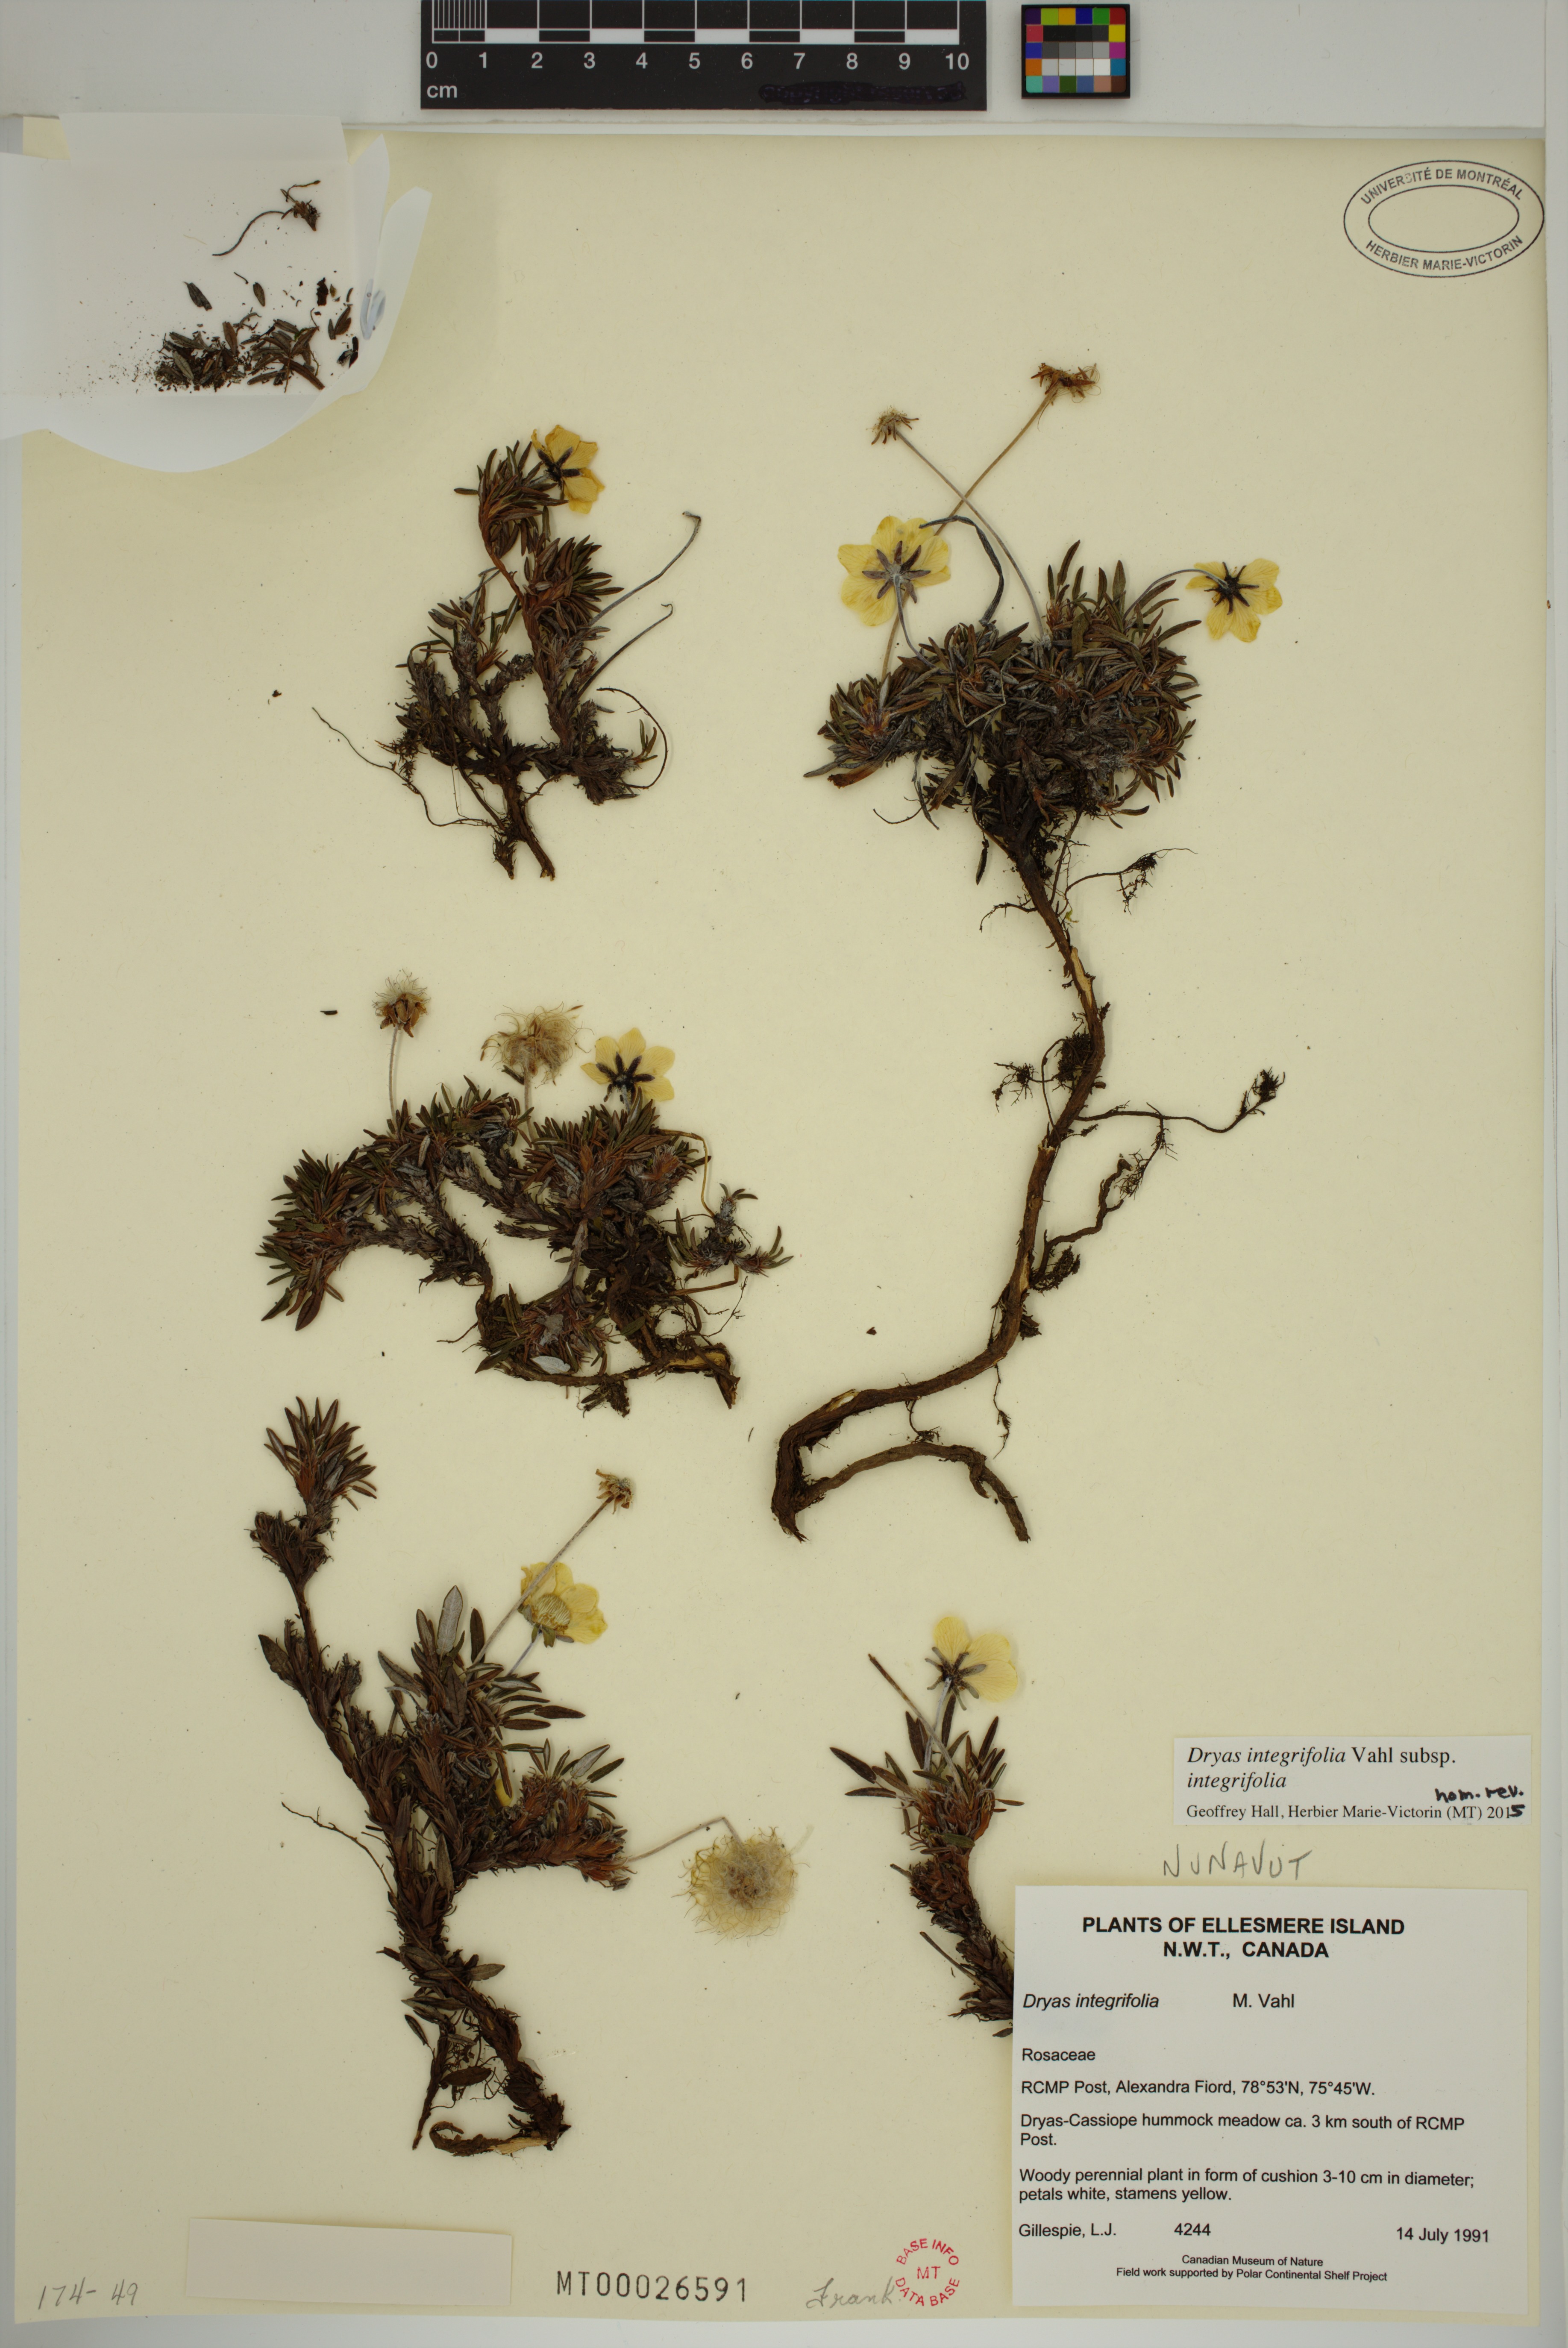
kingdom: Plantae
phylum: Tracheophyta
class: Magnoliopsida
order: Rosales
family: Rosaceae
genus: Dryas
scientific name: Dryas integrifolia
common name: Entire-leaved mountain avens
